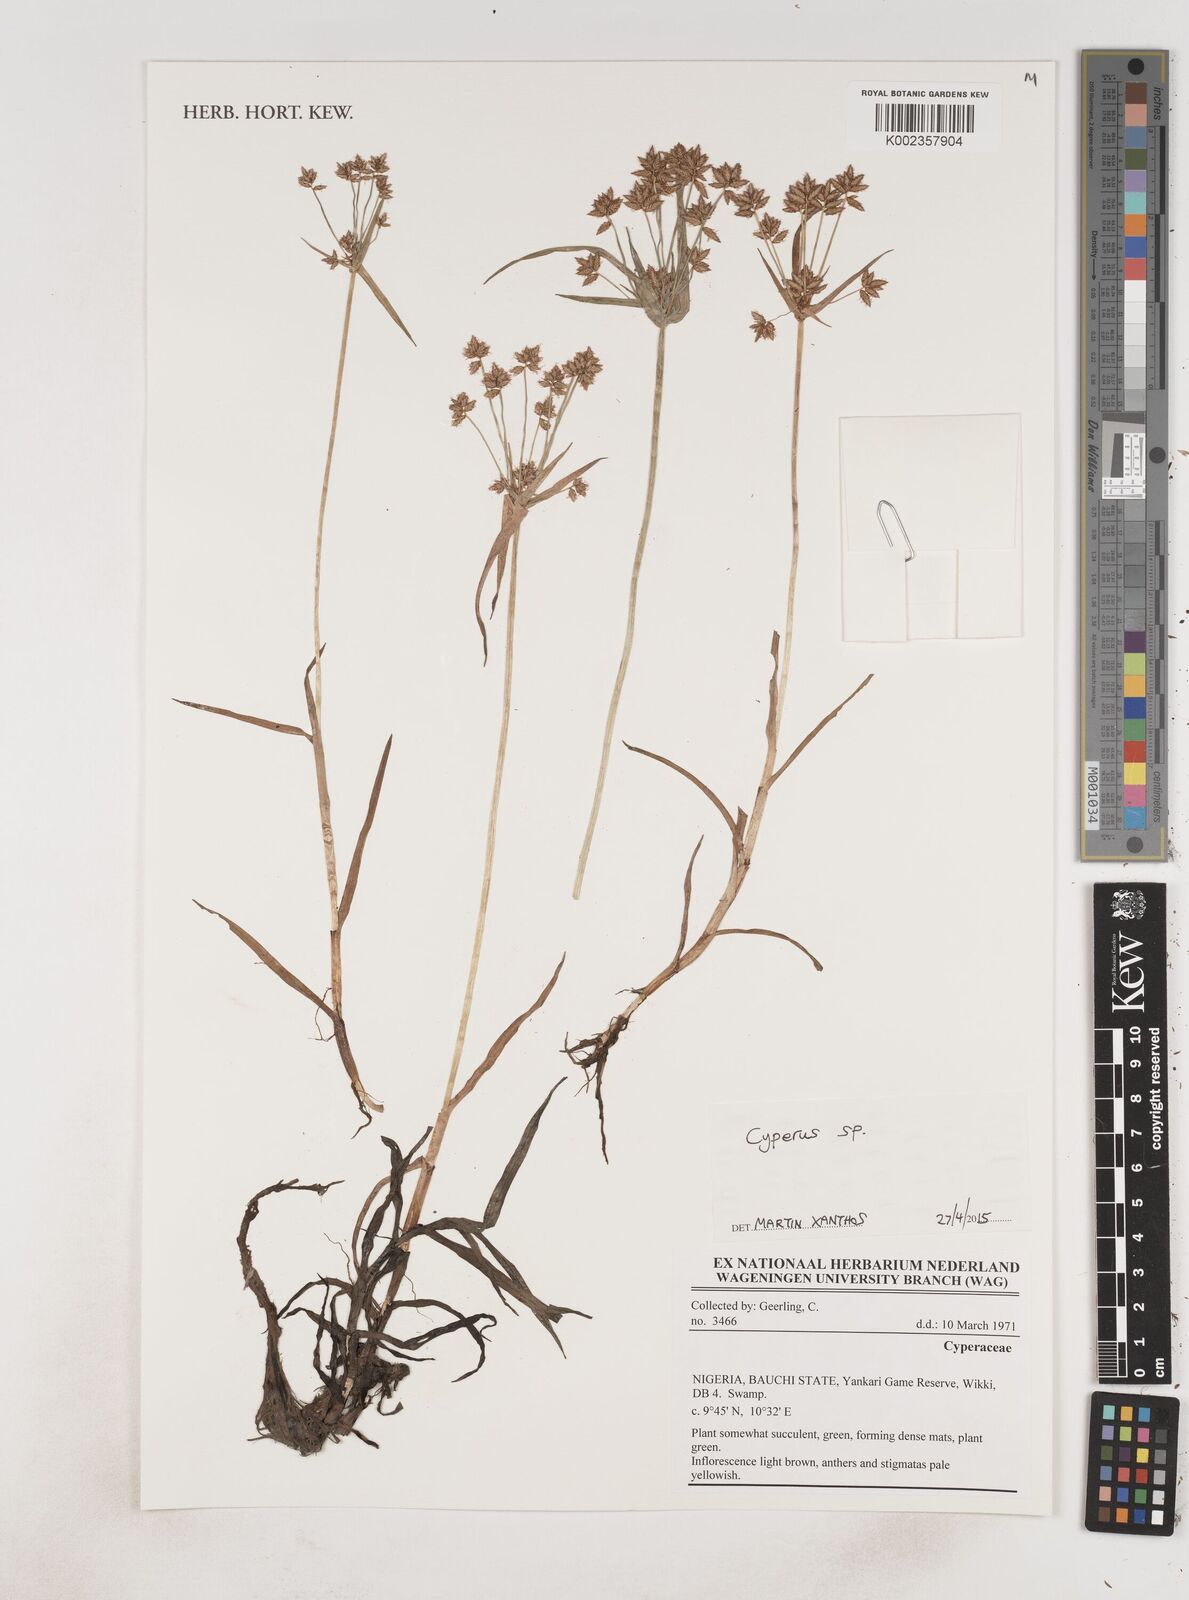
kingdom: Plantae
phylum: Tracheophyta
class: Liliopsida
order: Poales
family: Cyperaceae
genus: Cyperus
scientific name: Cyperus
